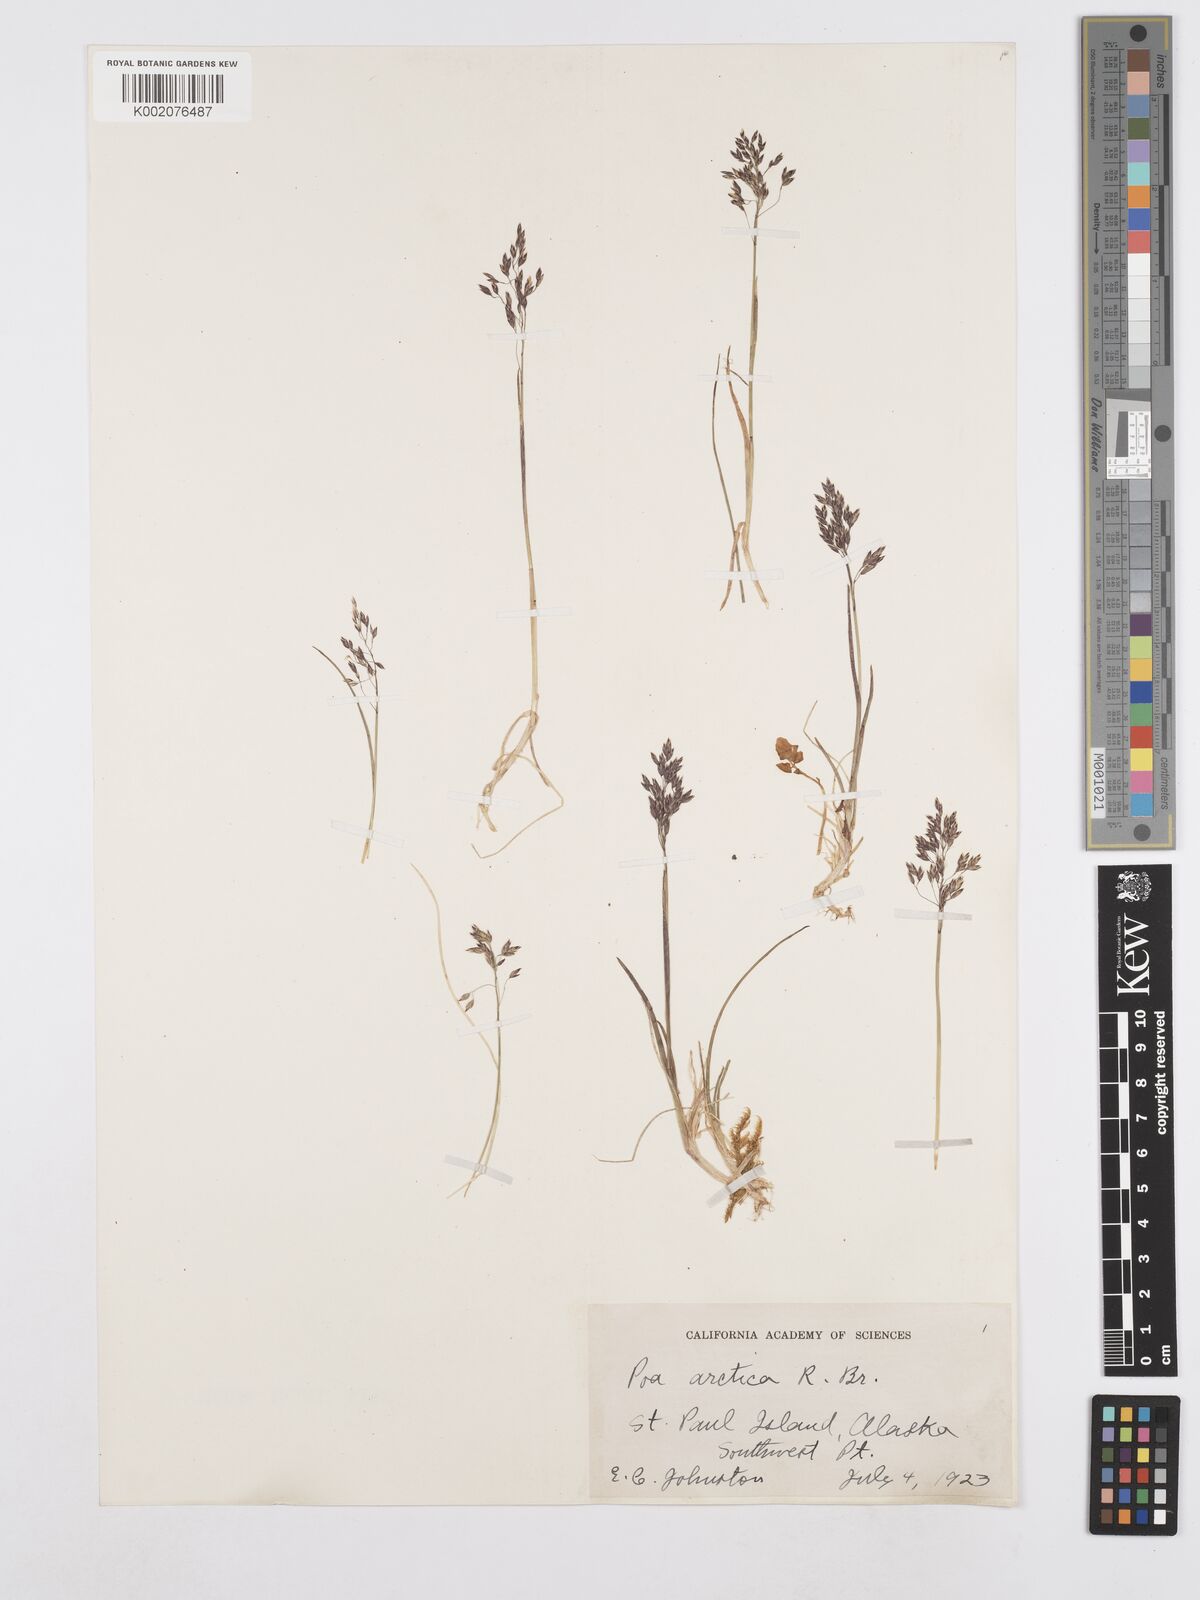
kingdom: Plantae
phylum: Tracheophyta
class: Liliopsida
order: Poales
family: Poaceae
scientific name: Poaceae
